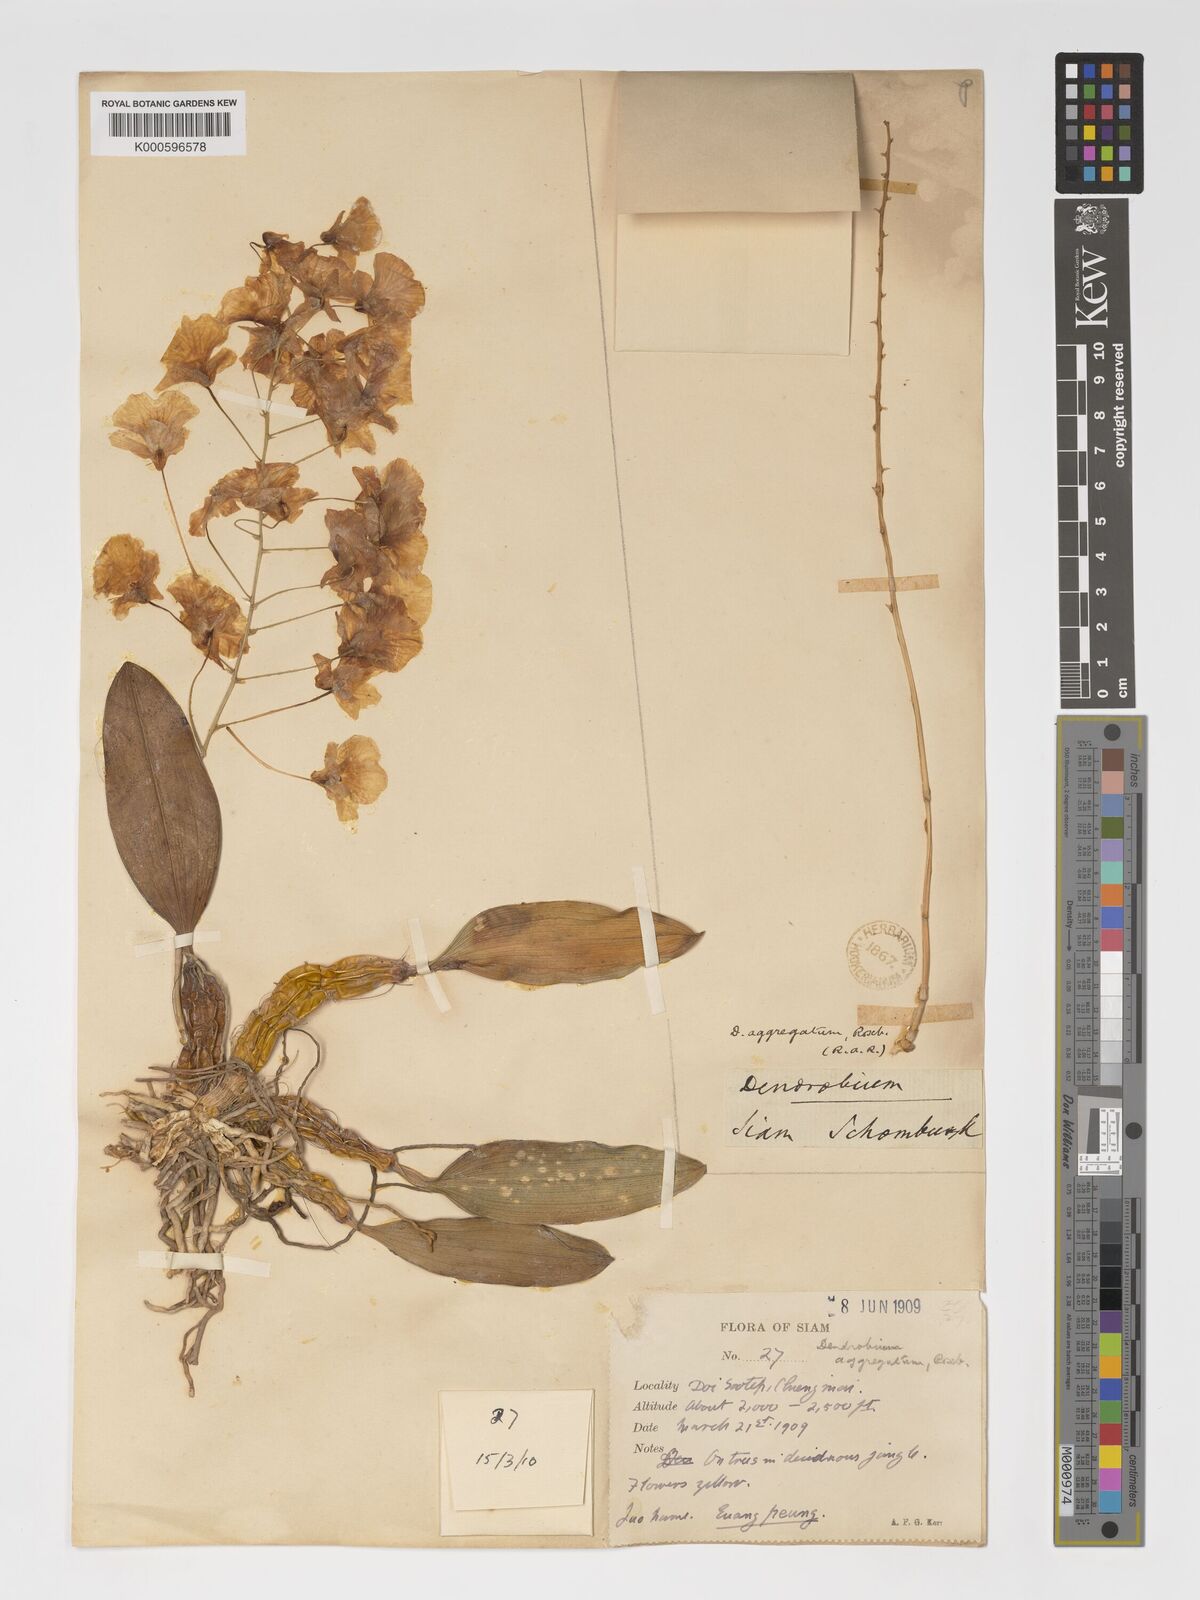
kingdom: Plantae
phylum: Tracheophyta
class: Liliopsida
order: Asparagales
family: Orchidaceae
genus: Dendrobium
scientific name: Dendrobium lindleyi
